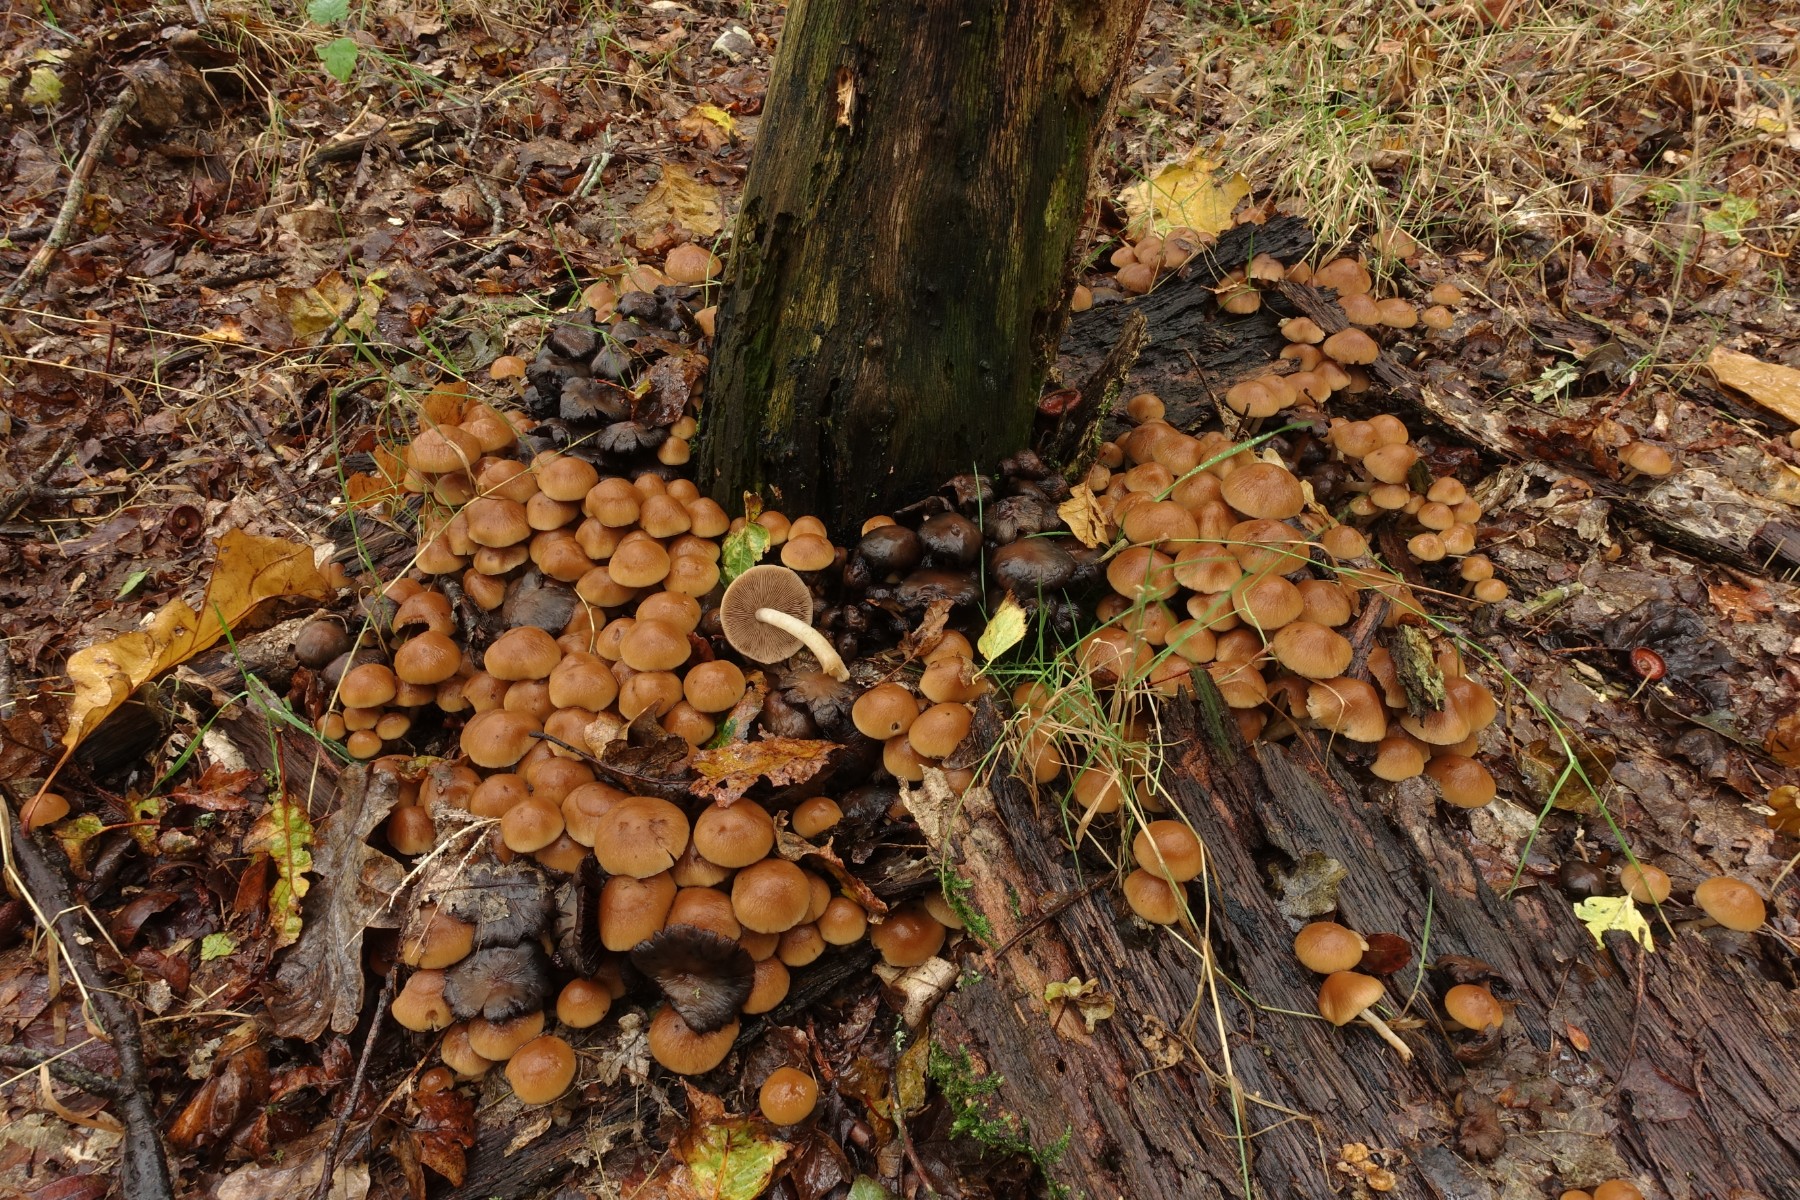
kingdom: Fungi
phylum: Basidiomycota
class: Agaricomycetes
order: Agaricales
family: Psathyrellaceae
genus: Psathyrella
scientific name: Psathyrella piluliformis
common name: lysstokket mørkhat
